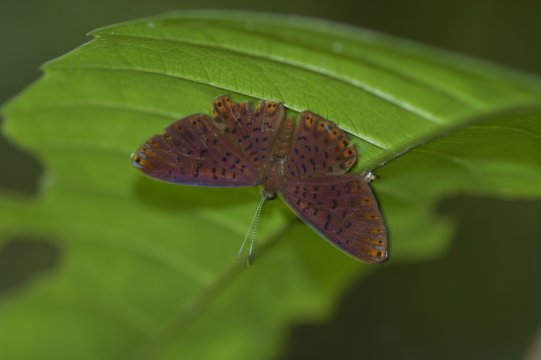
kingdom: Animalia
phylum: Arthropoda
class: Insecta
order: Lepidoptera
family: Riodinidae
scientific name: Riodinidae
